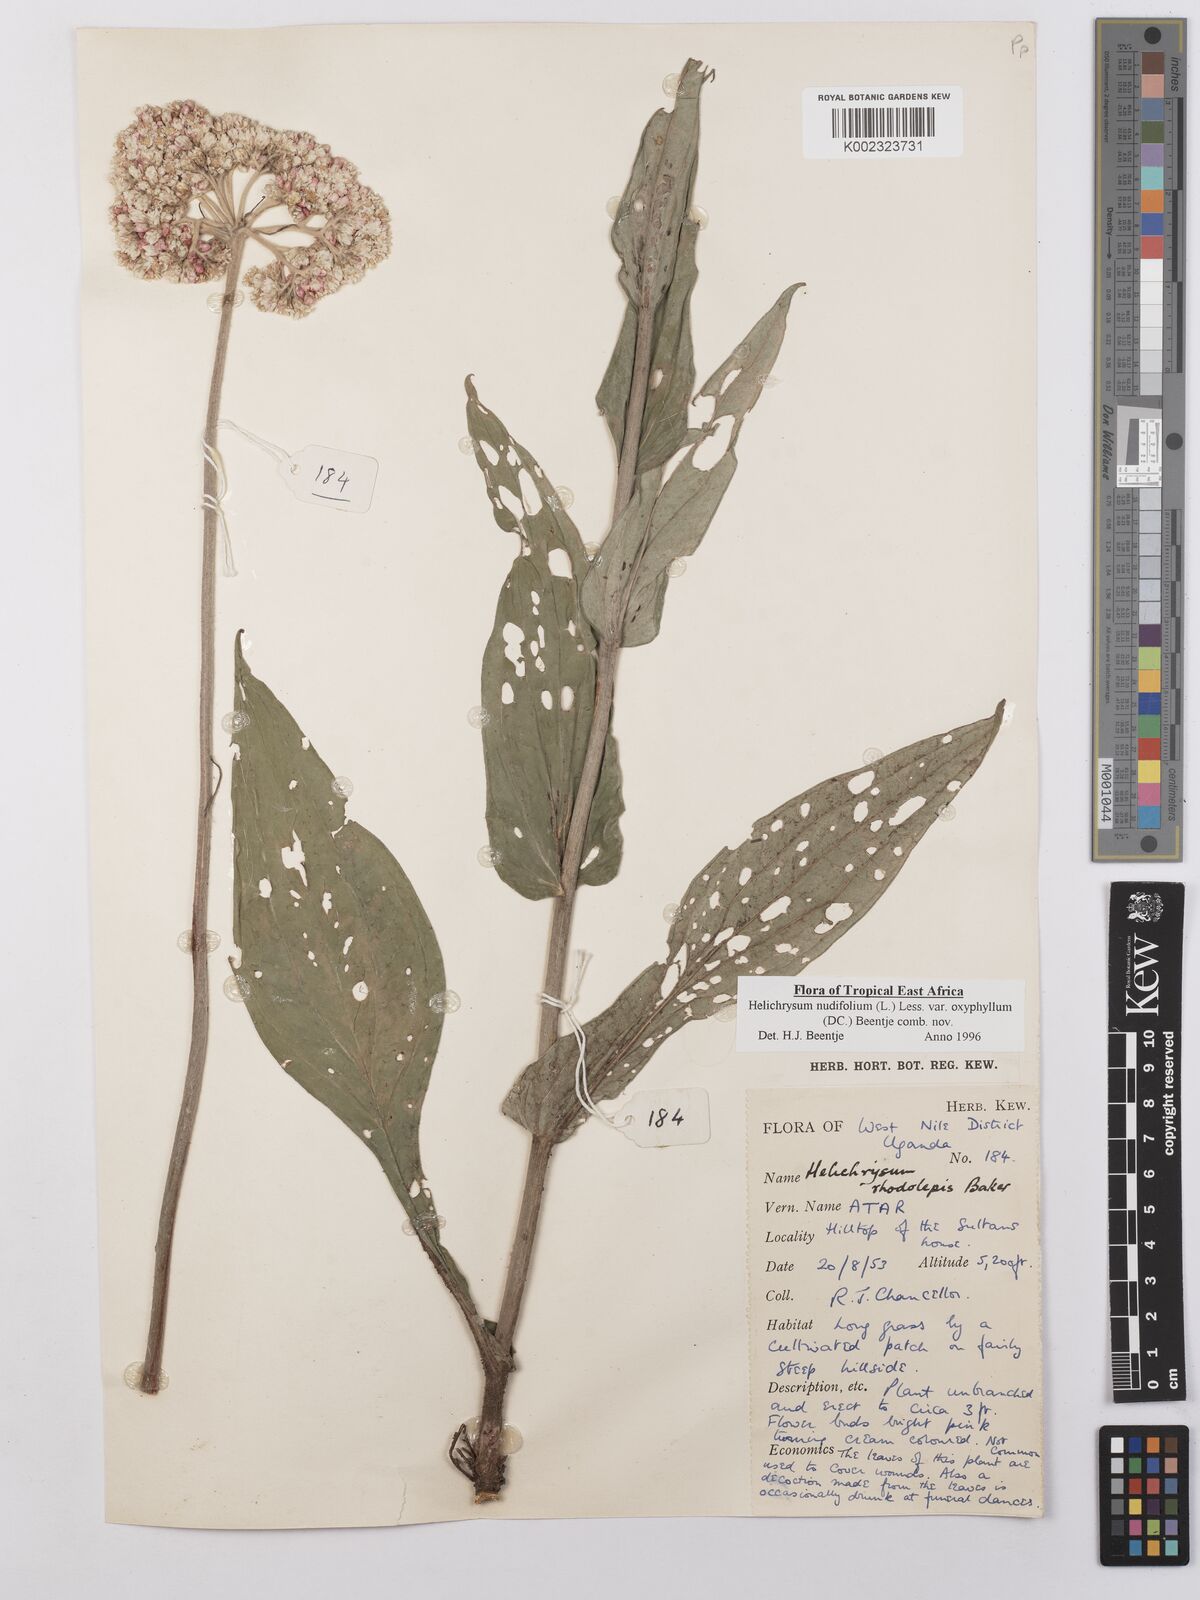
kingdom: Plantae
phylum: Tracheophyta
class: Magnoliopsida
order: Asterales
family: Asteraceae
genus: Helichrysum
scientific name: Helichrysum nudifolium
